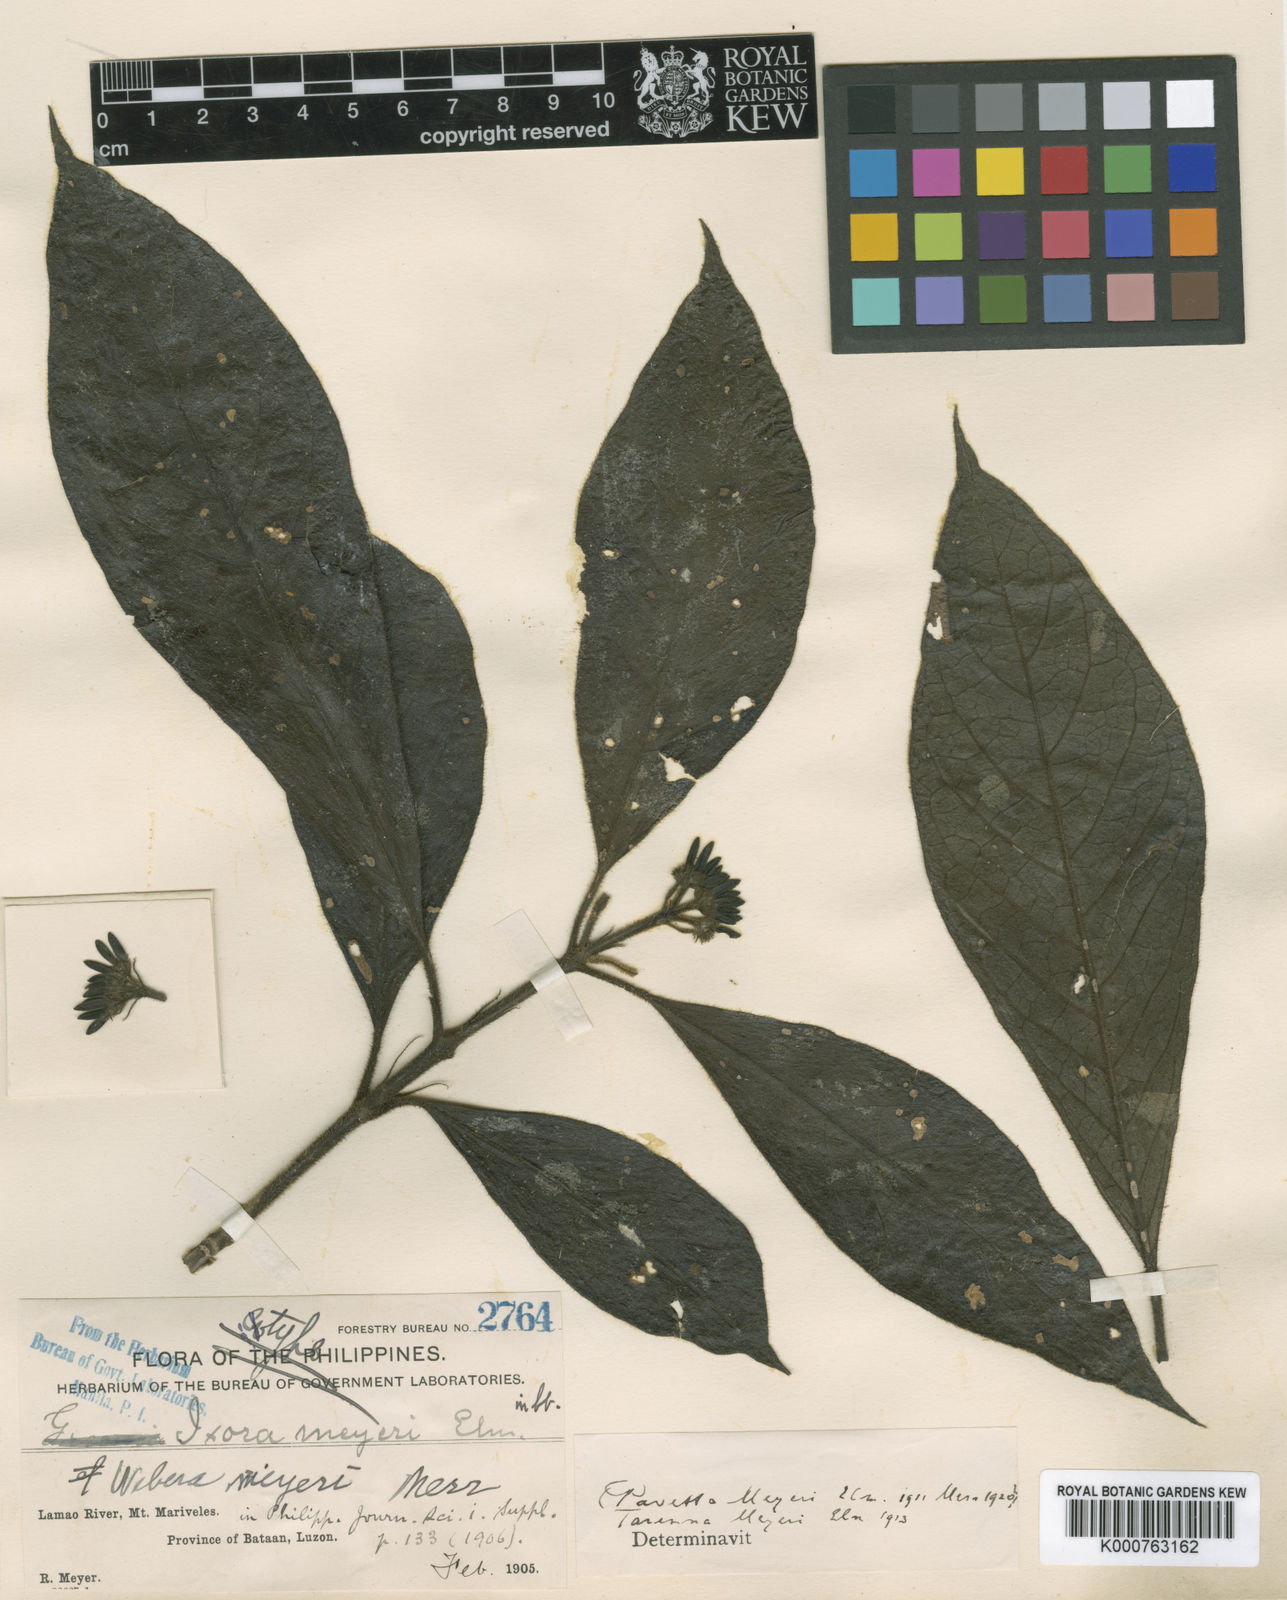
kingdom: Plantae
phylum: Tracheophyta
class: Magnoliopsida
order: Gentianales
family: Rubiaceae
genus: Tarenna
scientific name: Tarenna meyeri
